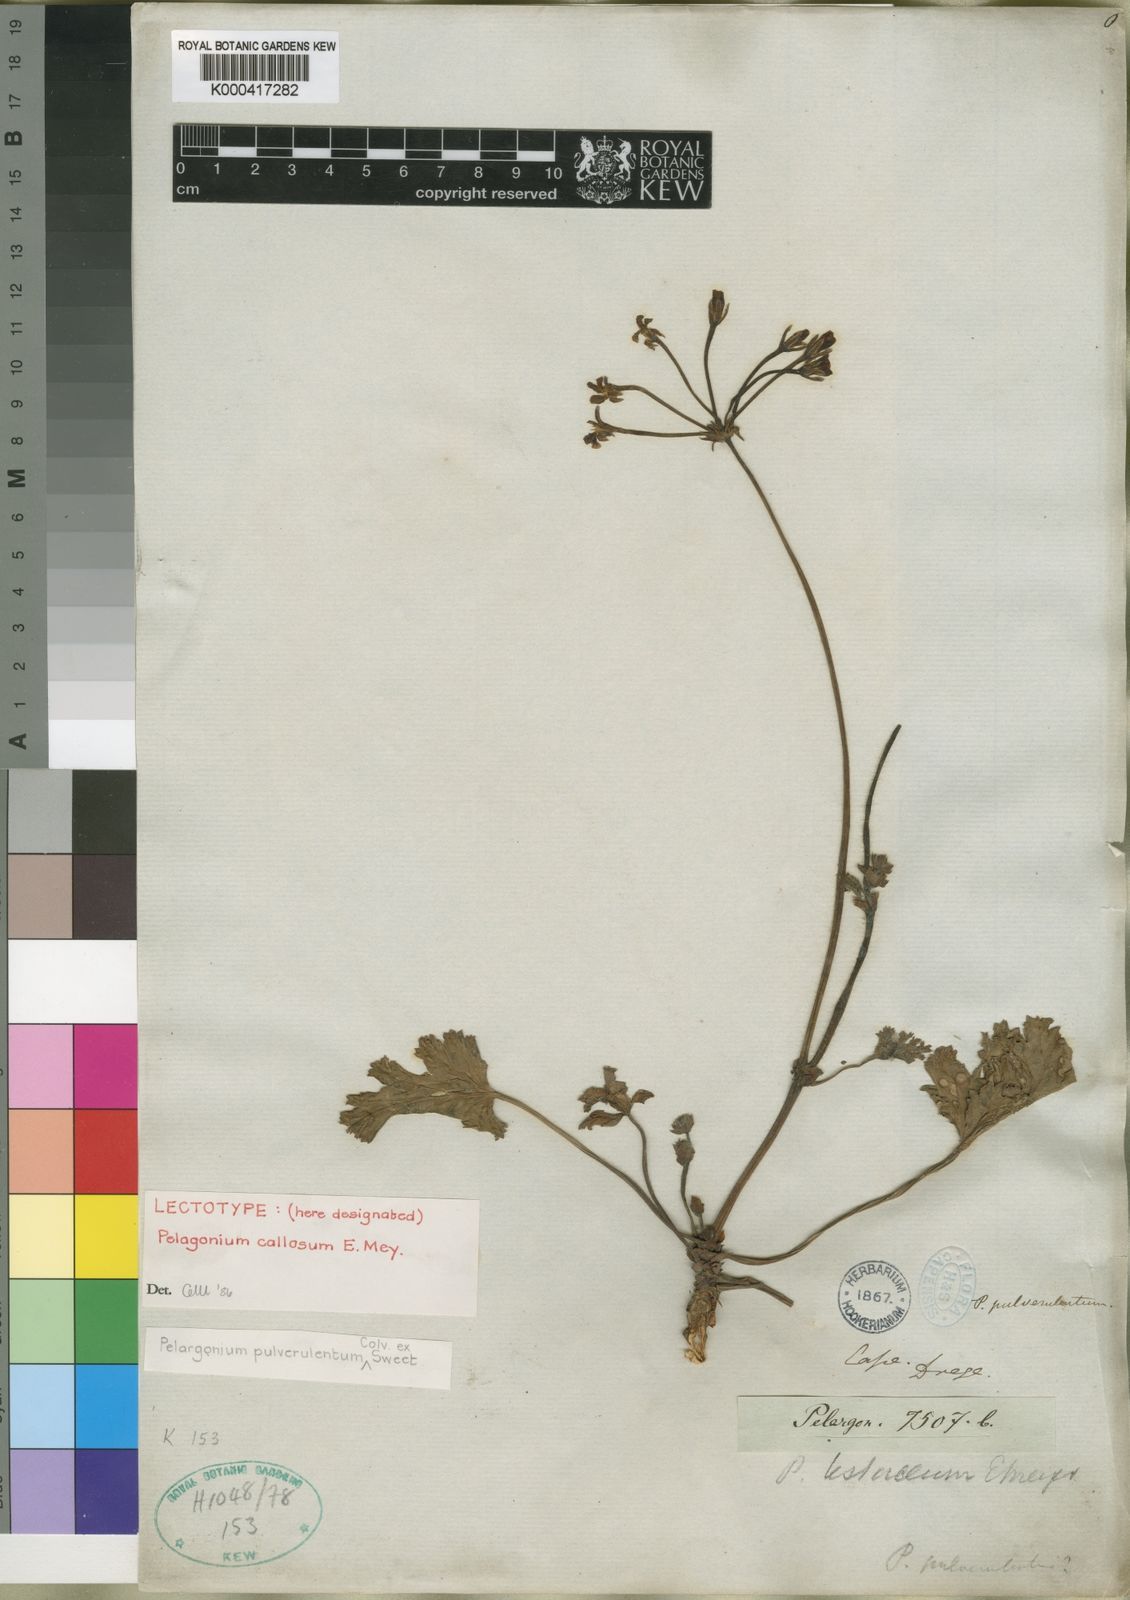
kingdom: Plantae
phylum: Tracheophyta
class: Magnoliopsida
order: Geraniales
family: Geraniaceae
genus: Pelargonium
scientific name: Pelargonium pulverulentum
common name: Powdered-leaf pelargonium
